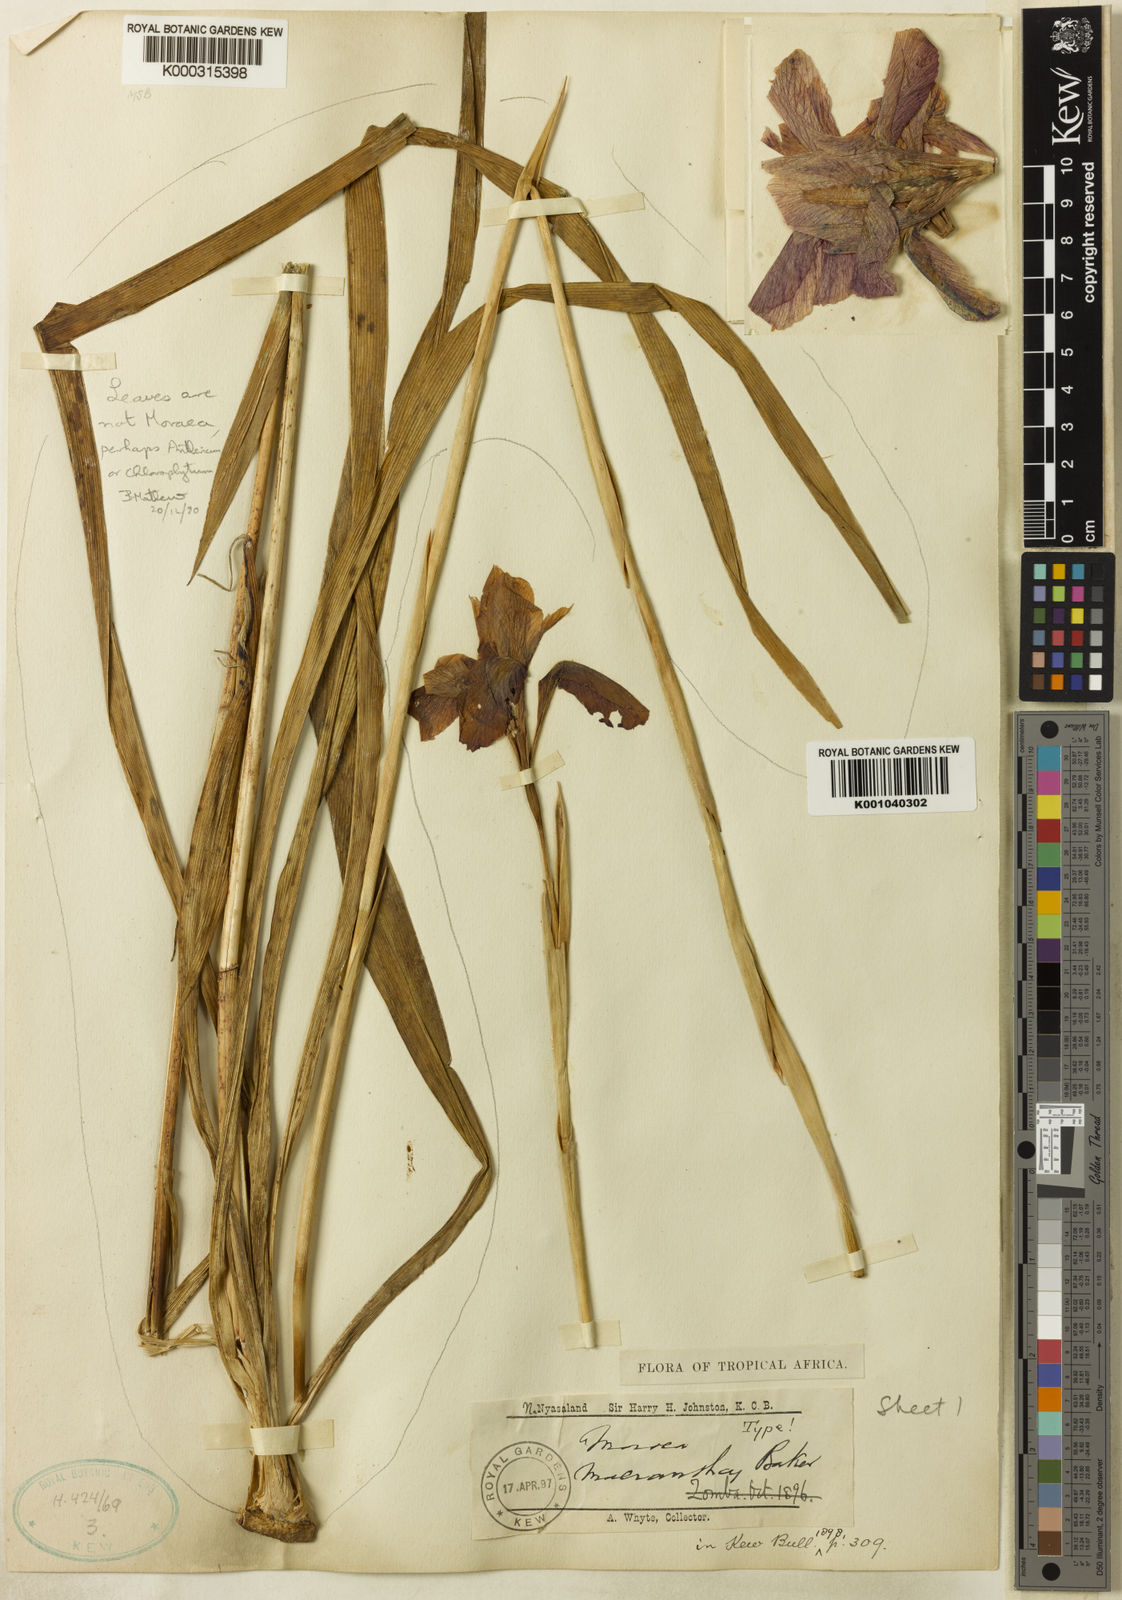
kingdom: Plantae
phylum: Tracheophyta
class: Liliopsida
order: Asparagales
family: Iridaceae
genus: Moraea
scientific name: Moraea macrantha
